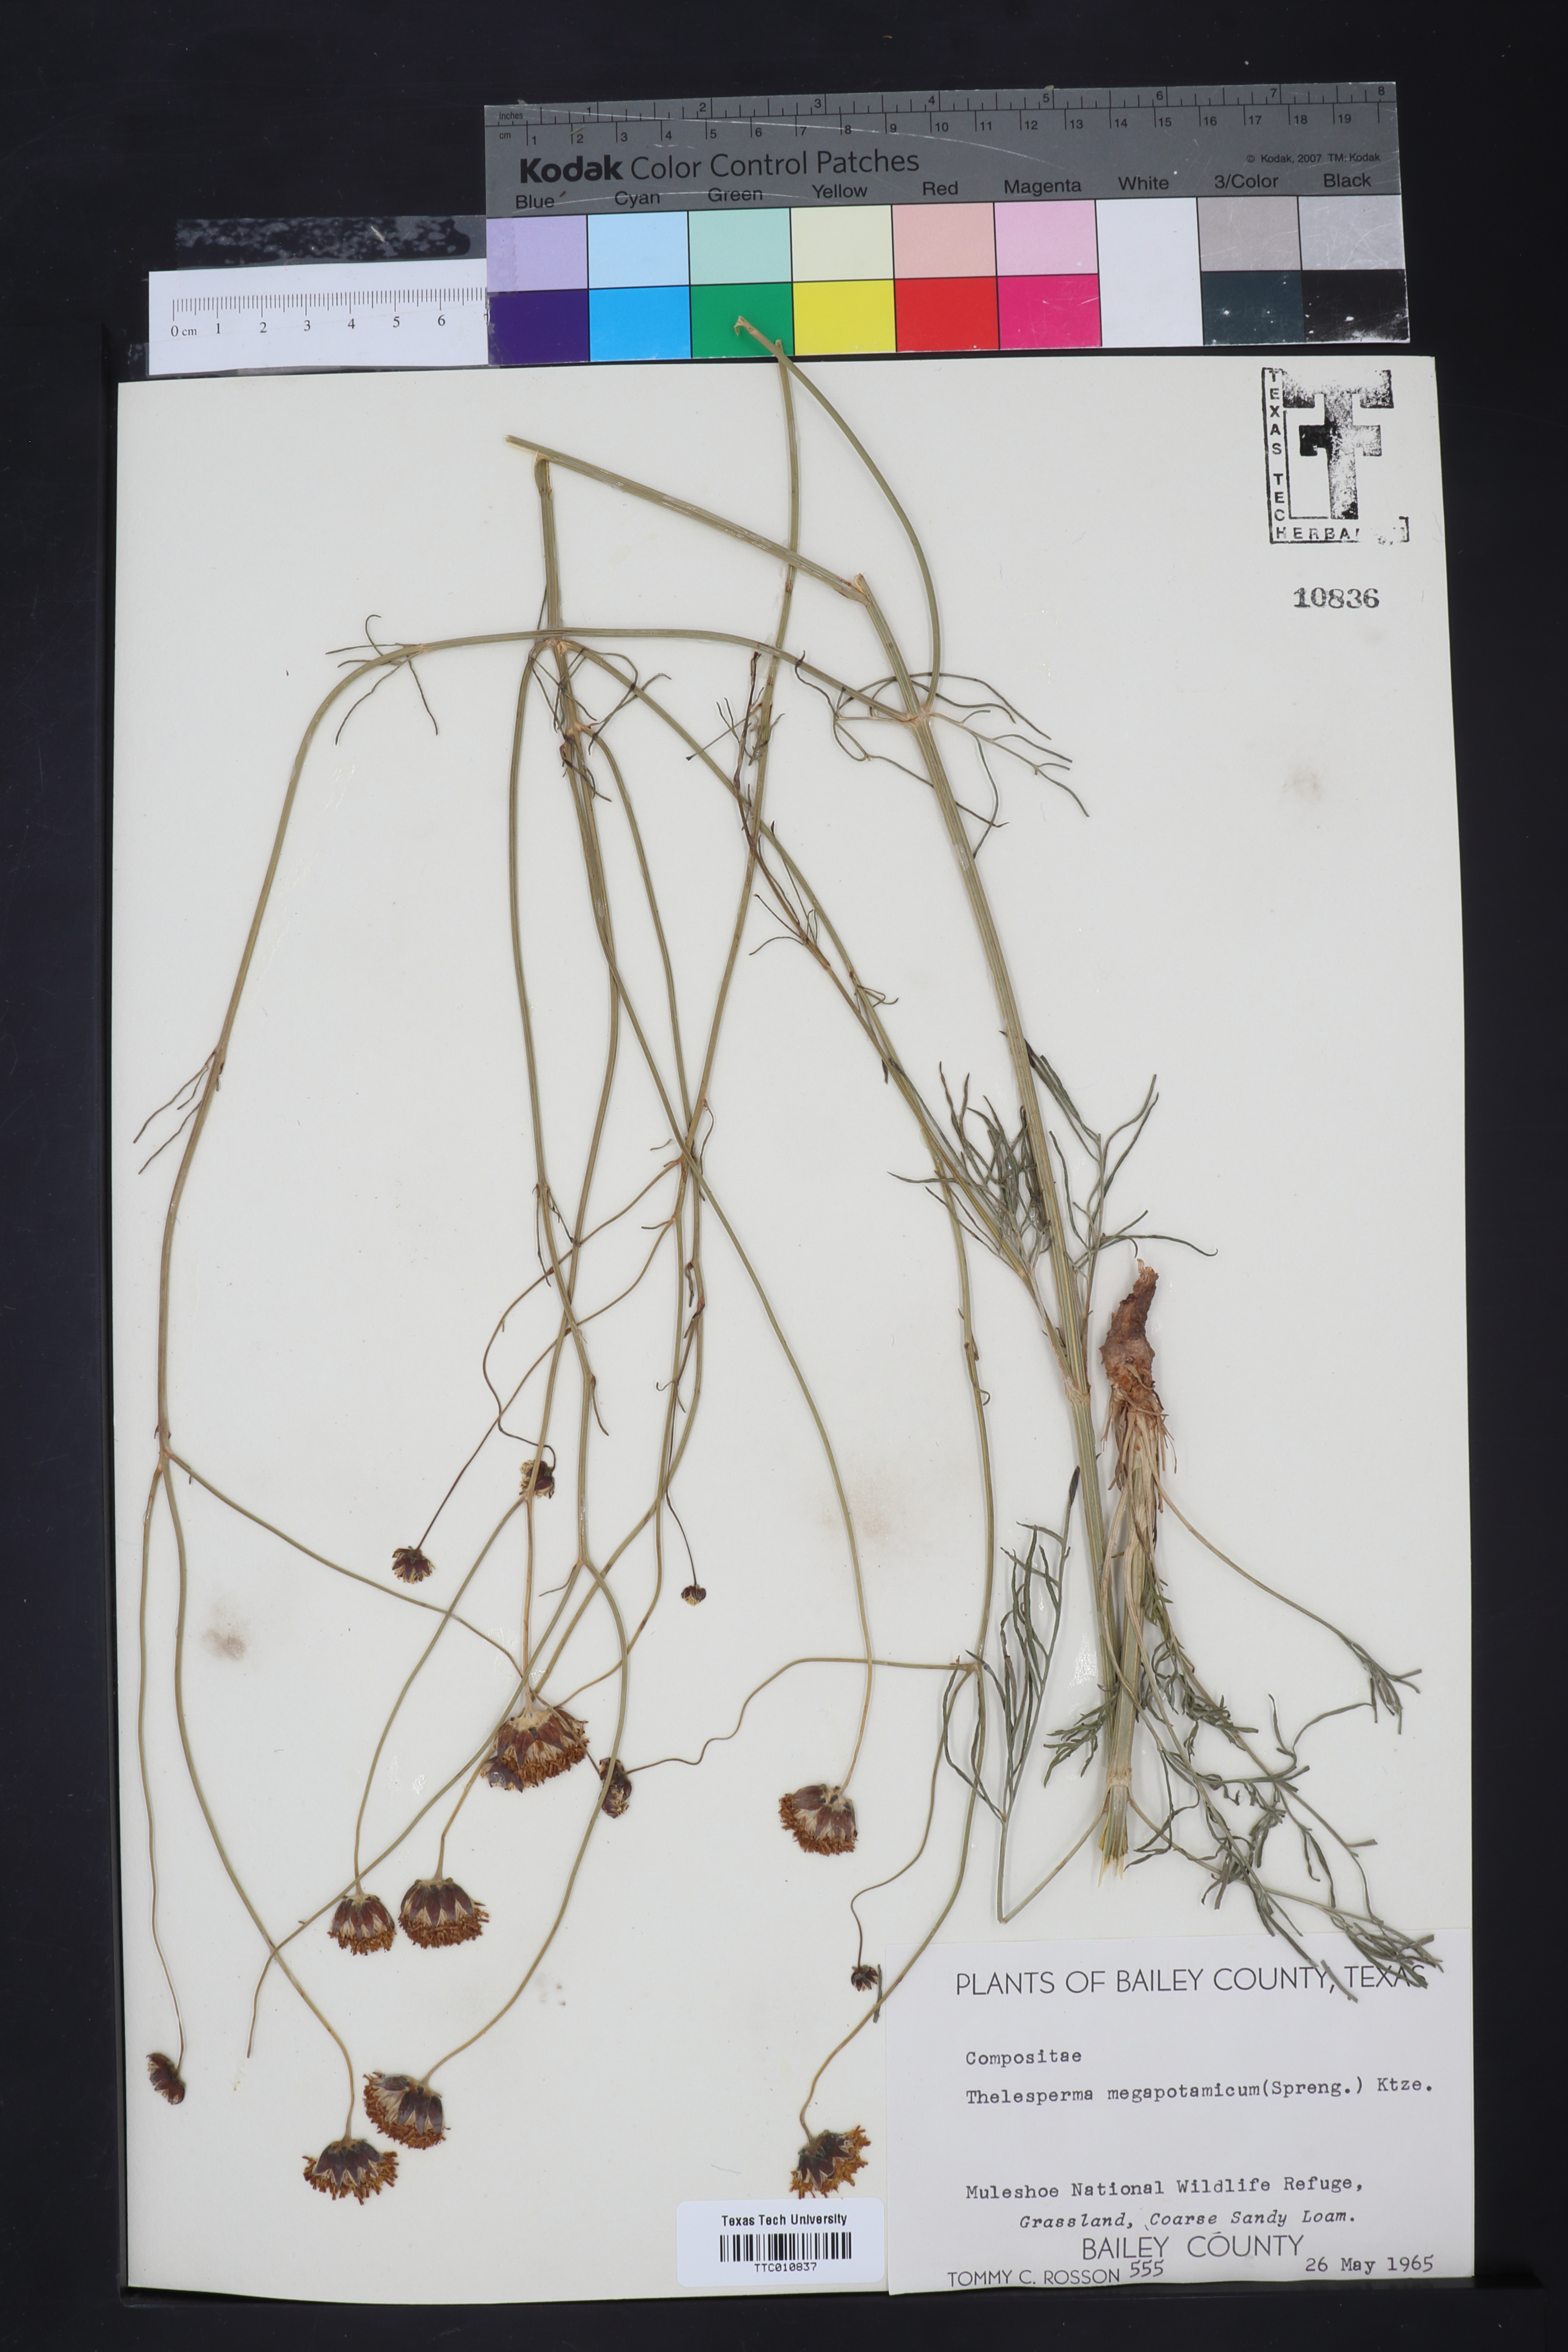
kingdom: Plantae
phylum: Tracheophyta
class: Magnoliopsida
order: Asterales
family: Asteraceae
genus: Thelesperma
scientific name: Thelesperma megapotamicum
